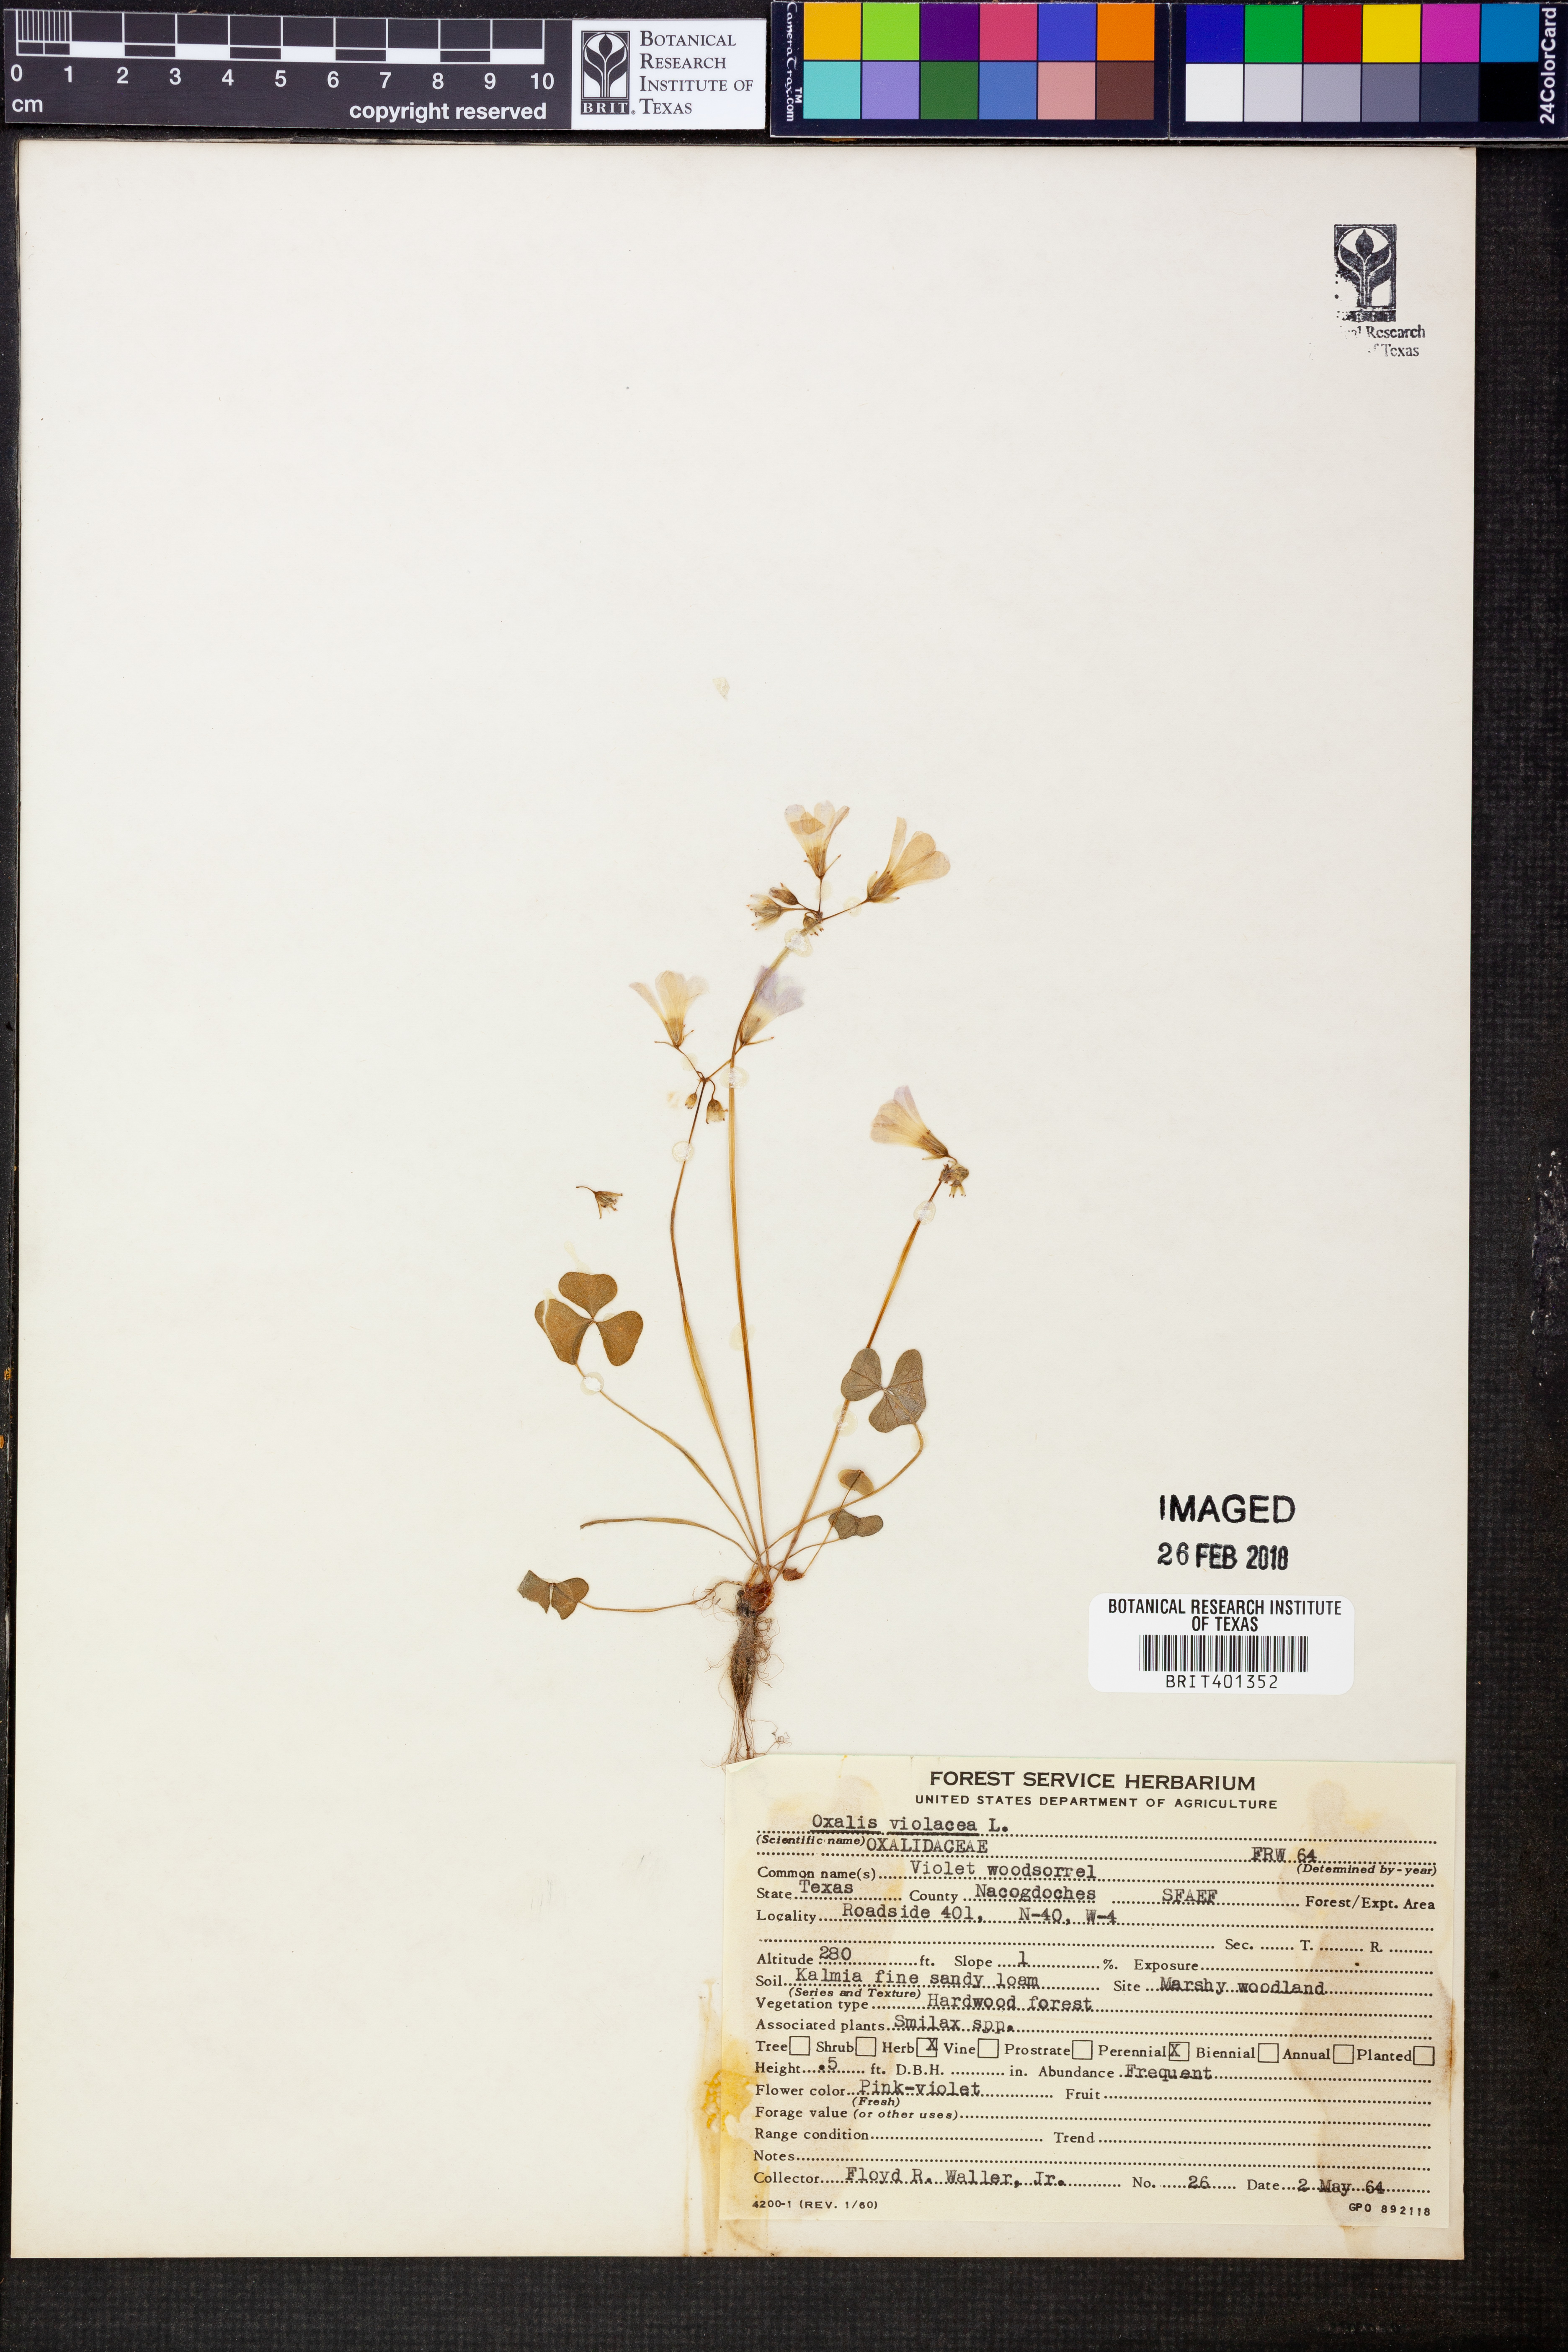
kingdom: Plantae
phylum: Tracheophyta
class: Magnoliopsida
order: Oxalidales
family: Oxalidaceae
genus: Oxalis
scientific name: Oxalis violacea
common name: Violet wood-sorrel
